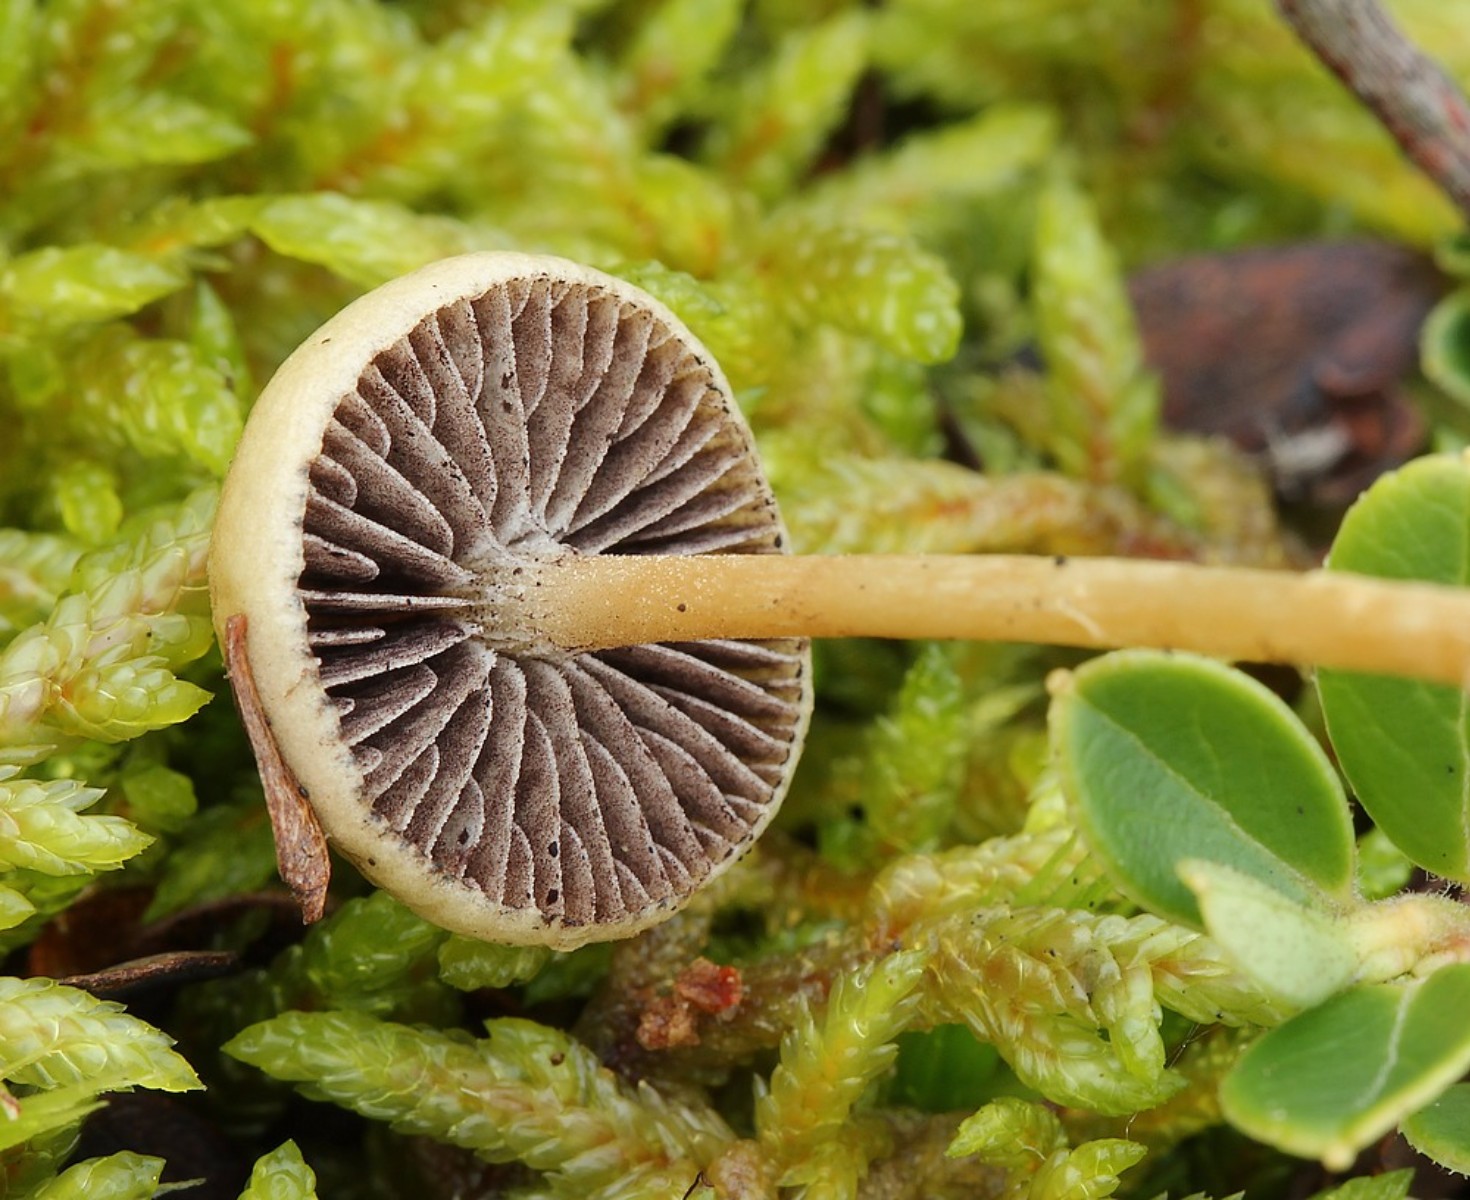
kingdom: Fungi
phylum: Basidiomycota
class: Agaricomycetes
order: Agaricales
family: Strophariaceae
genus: Protostropharia
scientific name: Protostropharia
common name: bredblad
